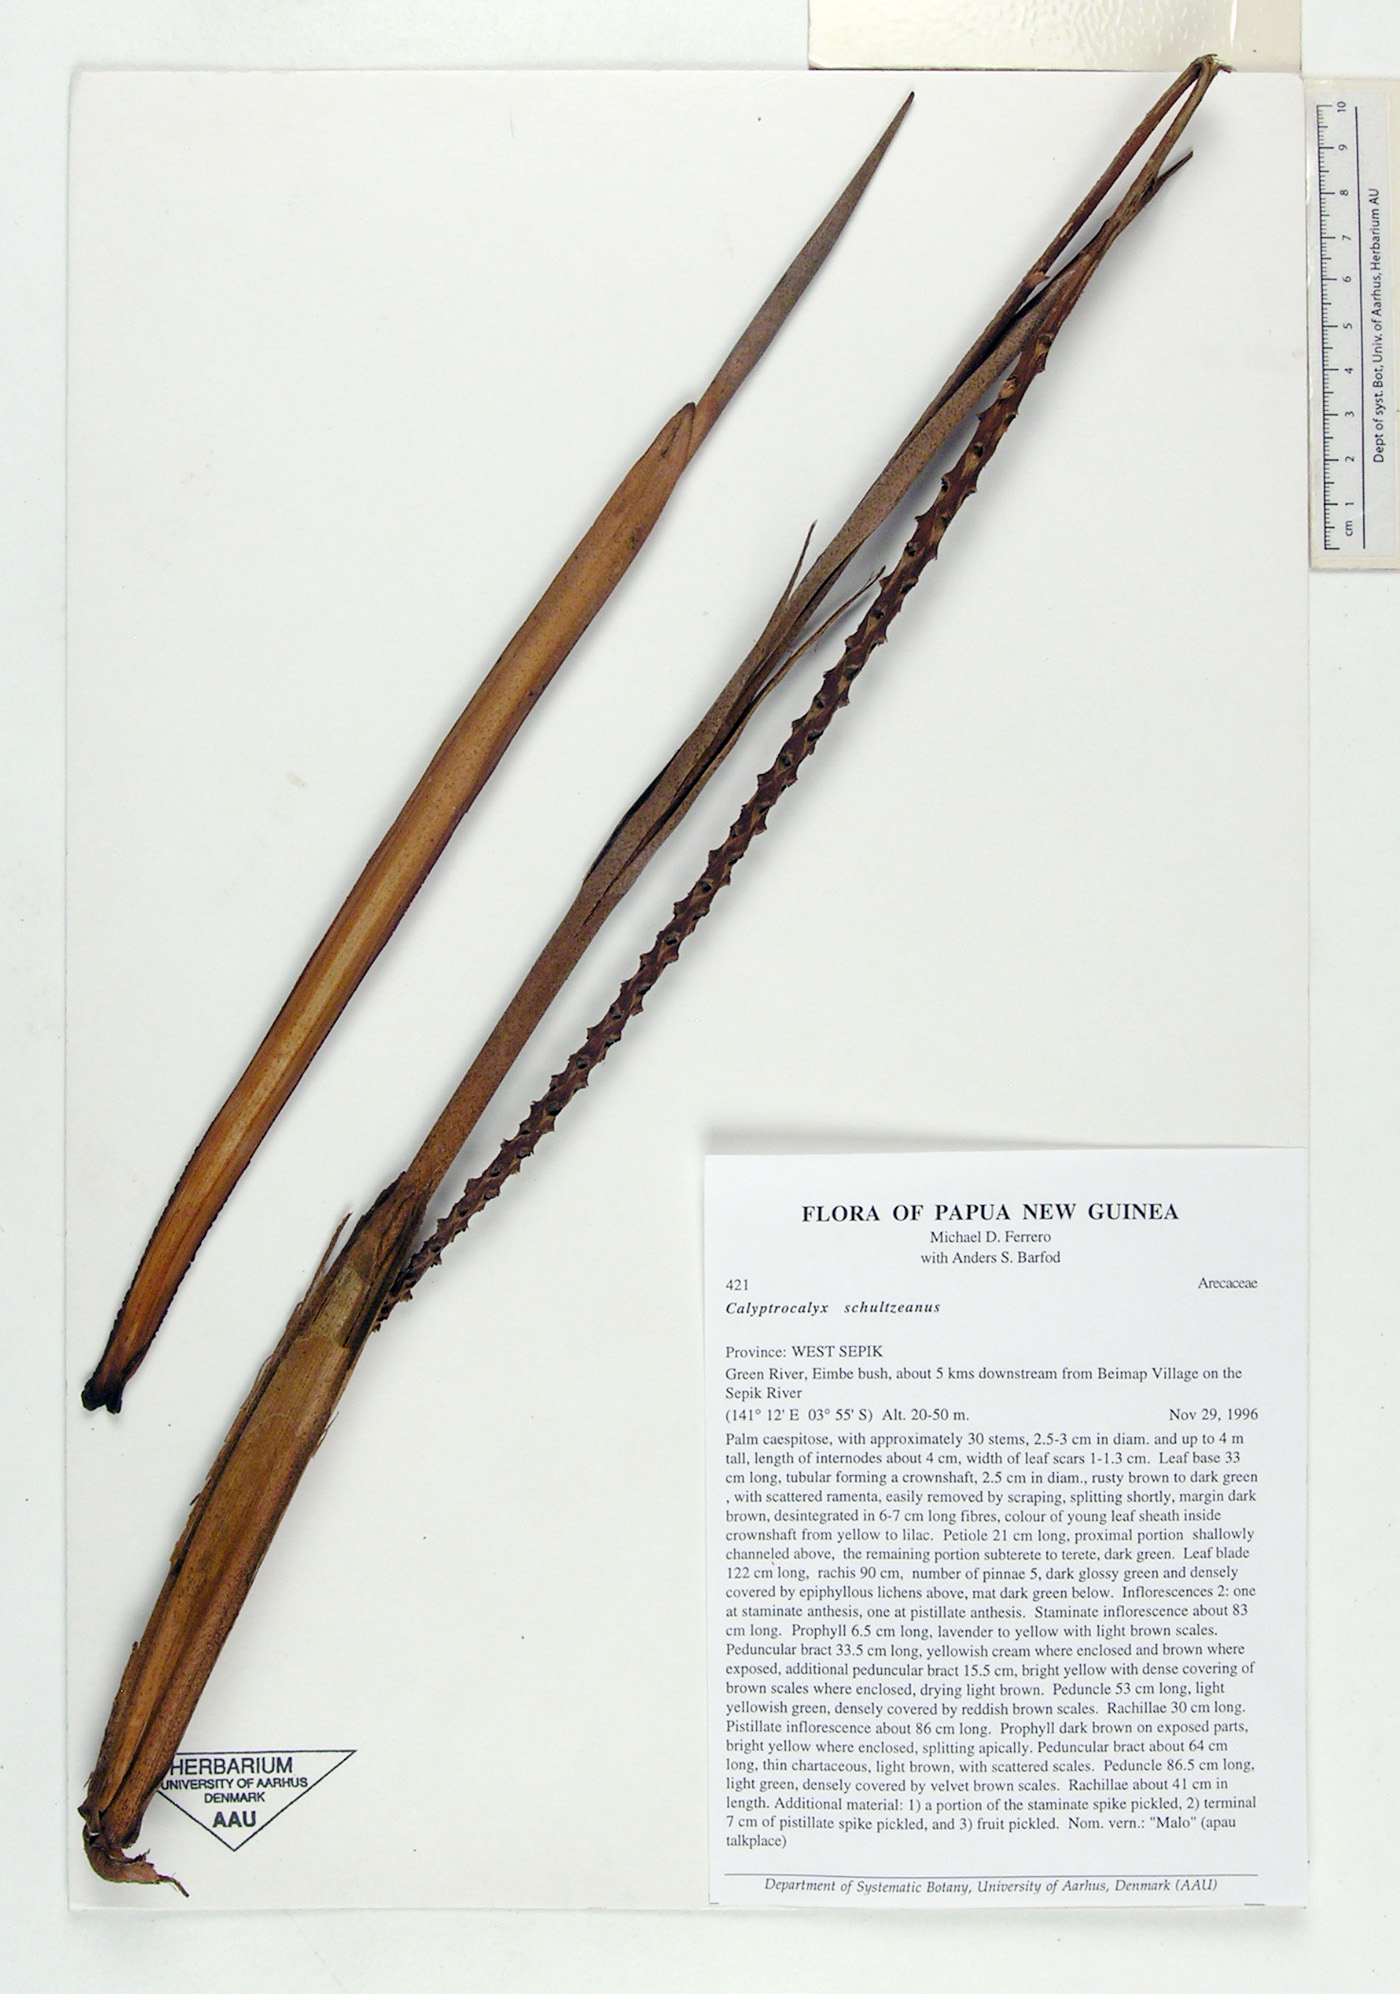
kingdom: Plantae
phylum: Tracheophyta
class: Liliopsida
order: Arecales
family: Arecaceae
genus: Calyptrocalyx
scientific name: Calyptrocalyx elegans
